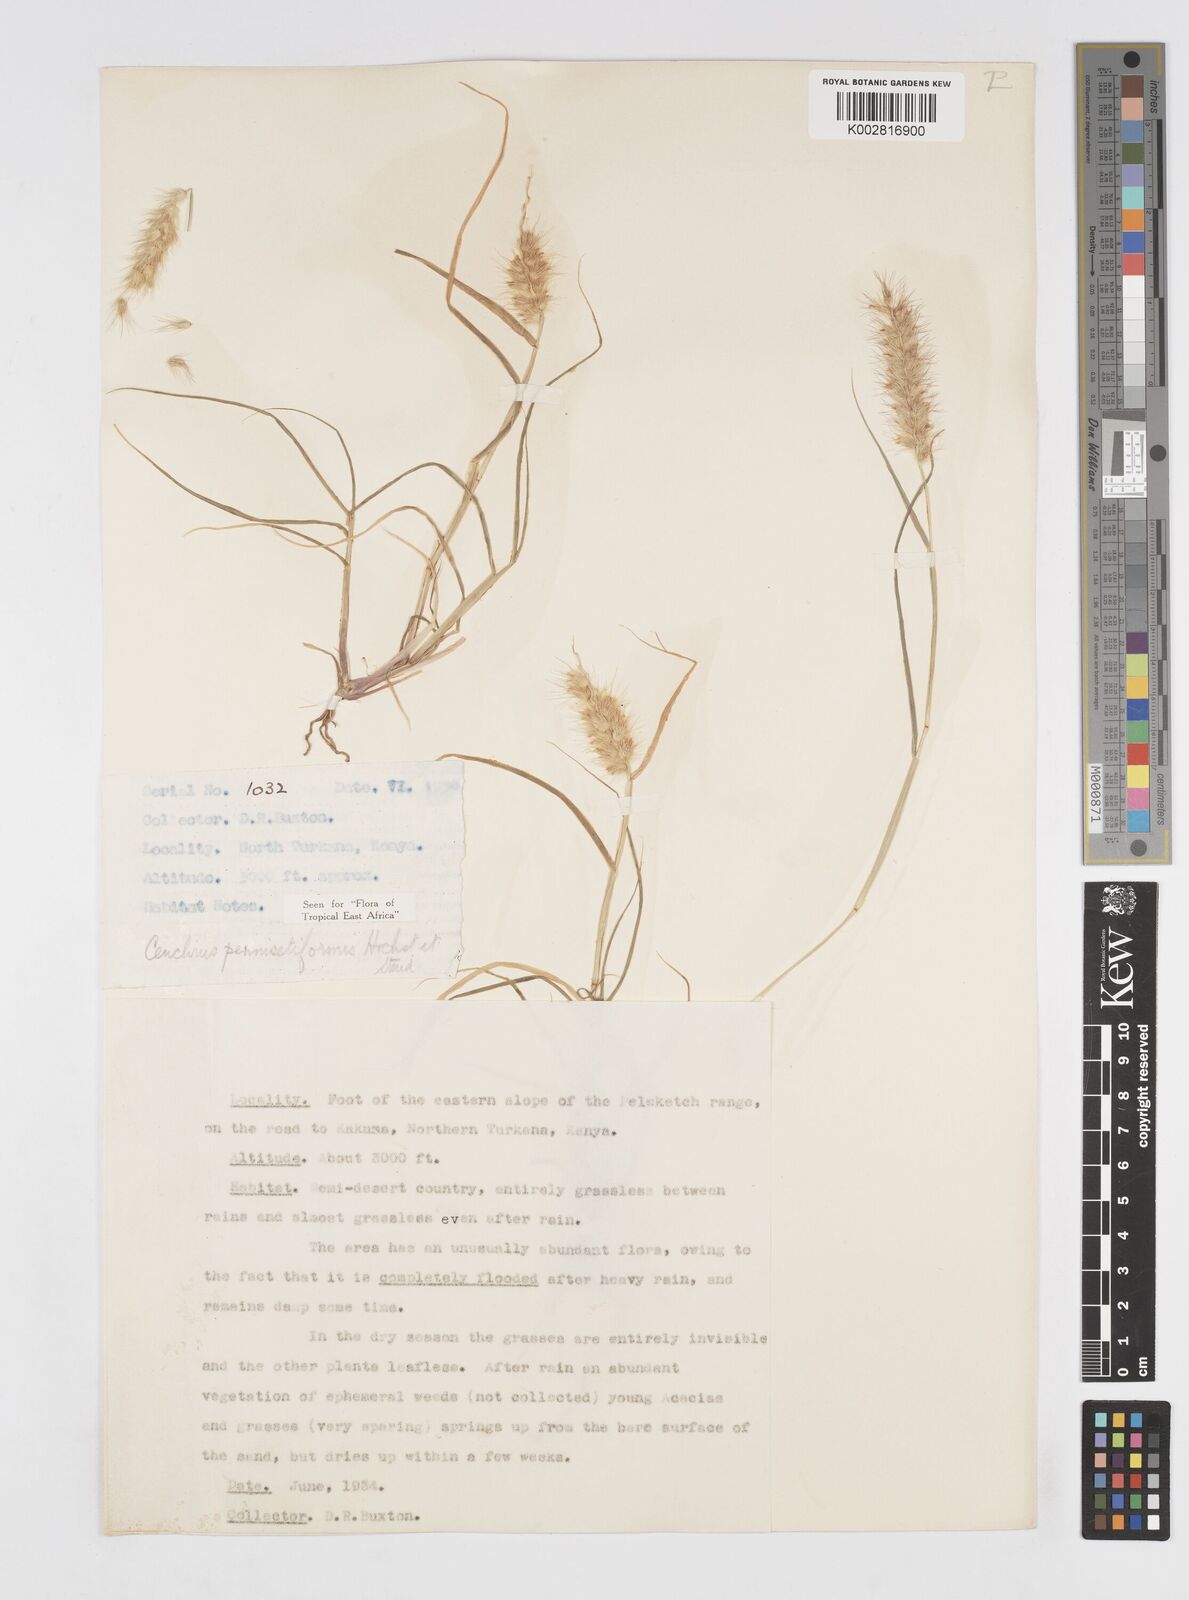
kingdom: Plantae
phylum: Tracheophyta
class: Liliopsida
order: Poales
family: Poaceae
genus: Cenchrus
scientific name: Cenchrus pennisetiformis
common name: Cloncurry
